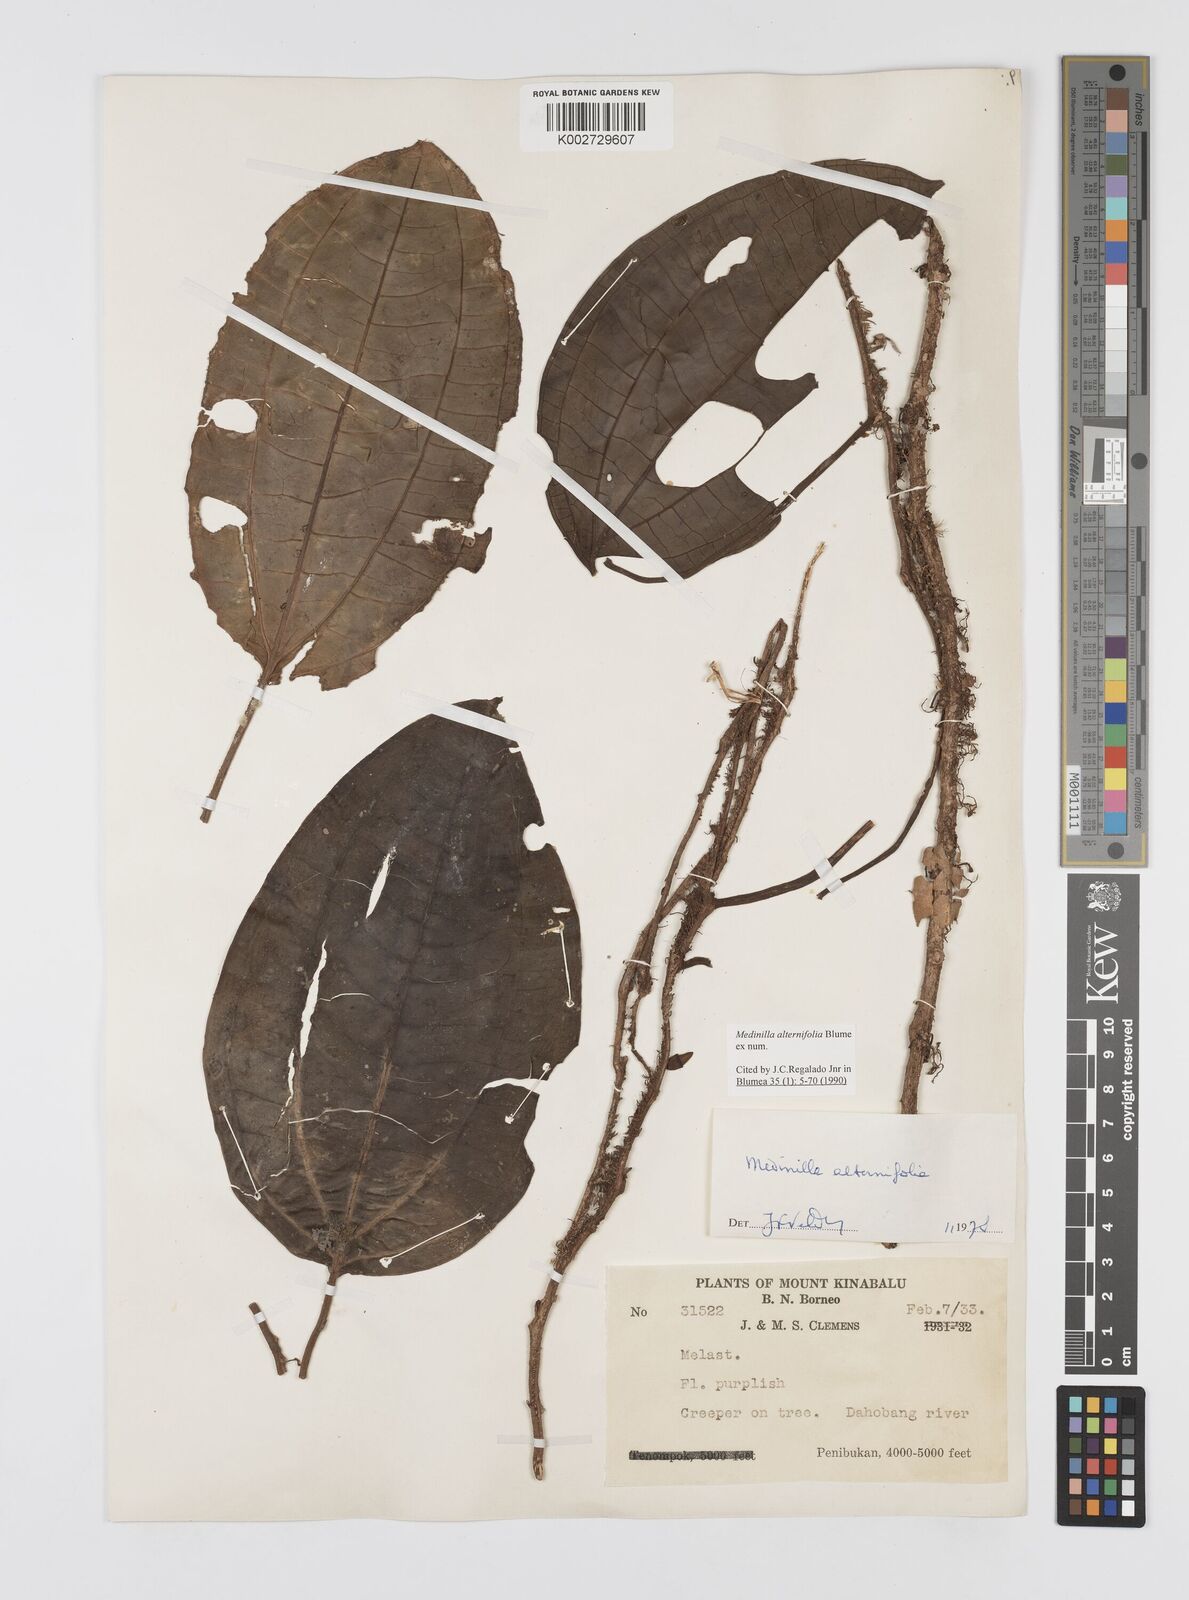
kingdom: Plantae
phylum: Tracheophyta
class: Magnoliopsida
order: Myrtales
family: Melastomataceae
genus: Heteroblemma
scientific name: Heteroblemma alternifolium
